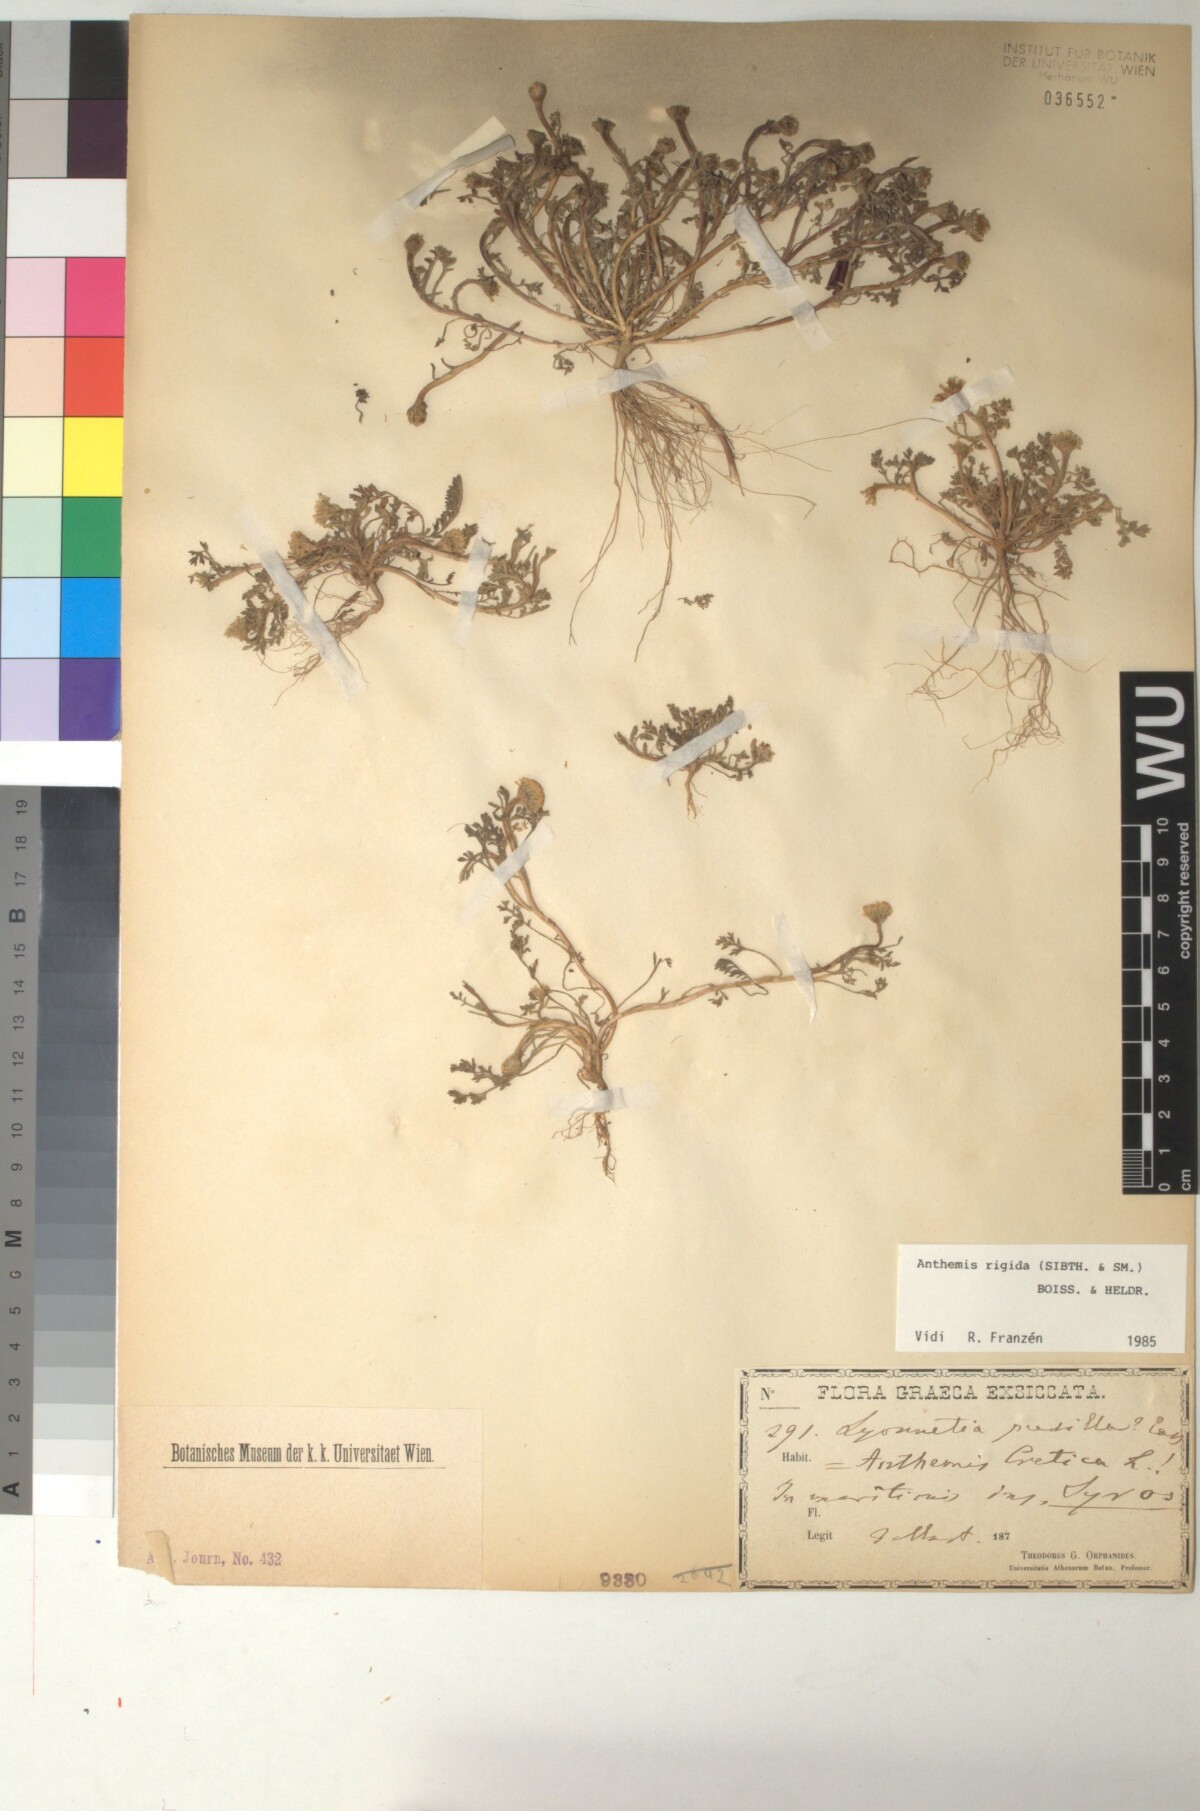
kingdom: Plantae
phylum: Tracheophyta
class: Magnoliopsida
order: Asterales
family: Asteraceae
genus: Anthemis
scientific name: Anthemis rigida
